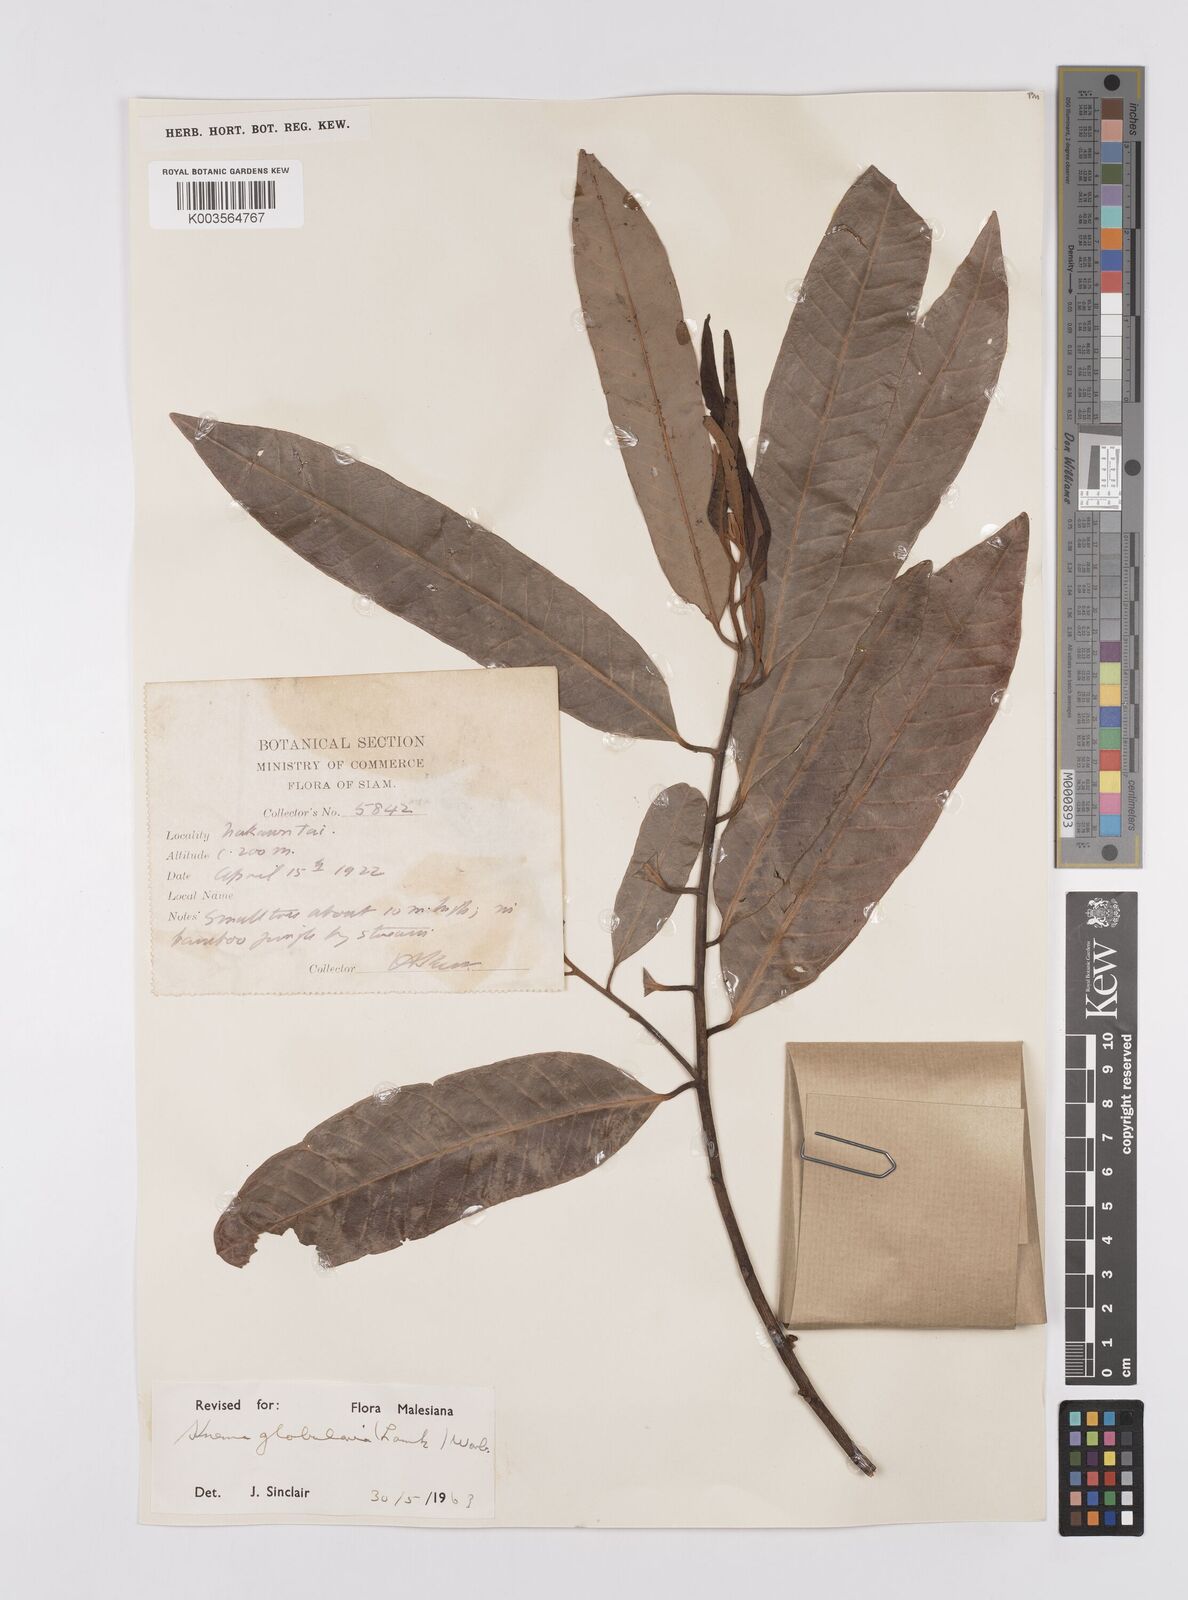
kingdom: Plantae
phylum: Tracheophyta
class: Magnoliopsida
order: Magnoliales
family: Myristicaceae
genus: Knema
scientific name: Knema globularia
